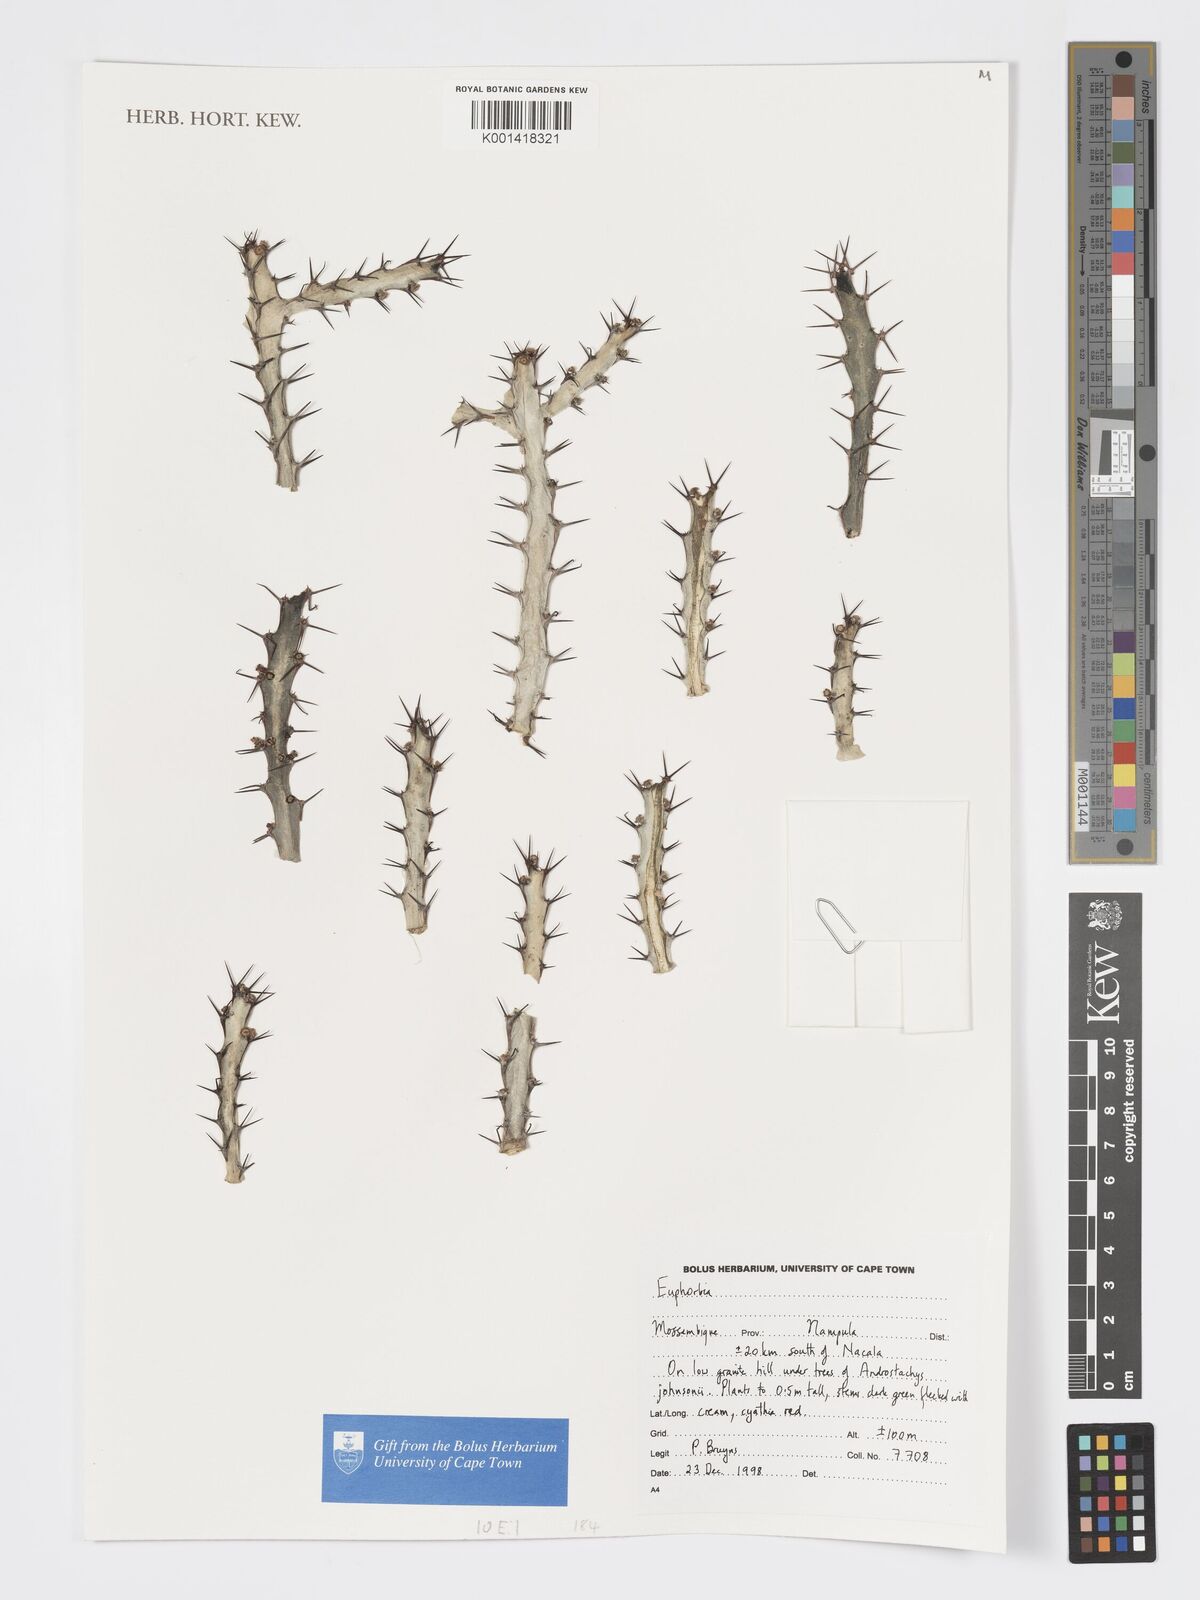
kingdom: Plantae
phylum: Tracheophyta
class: Magnoliopsida
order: Malpighiales
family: Euphorbiaceae
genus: Euphorbia
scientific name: Euphorbia
